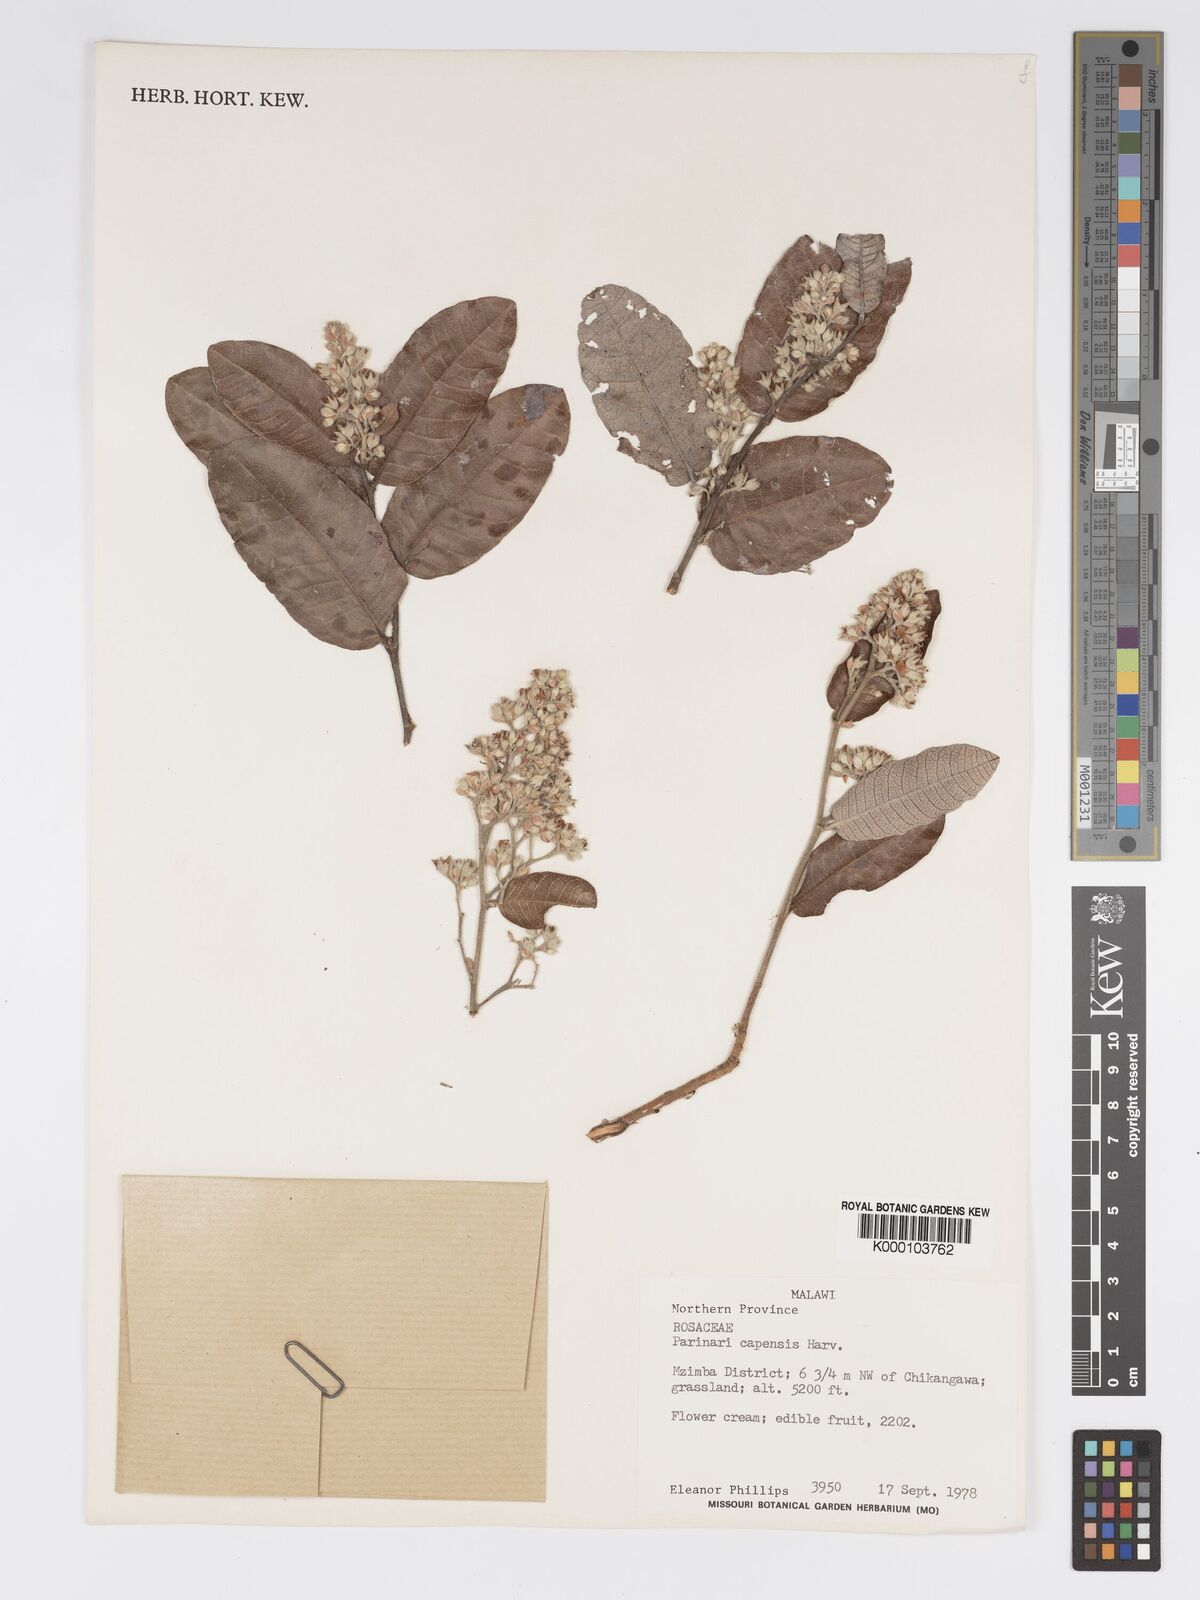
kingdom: Plantae
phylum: Tracheophyta
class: Magnoliopsida
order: Malpighiales
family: Chrysobalanaceae
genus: Parinari
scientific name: Parinari capensis
